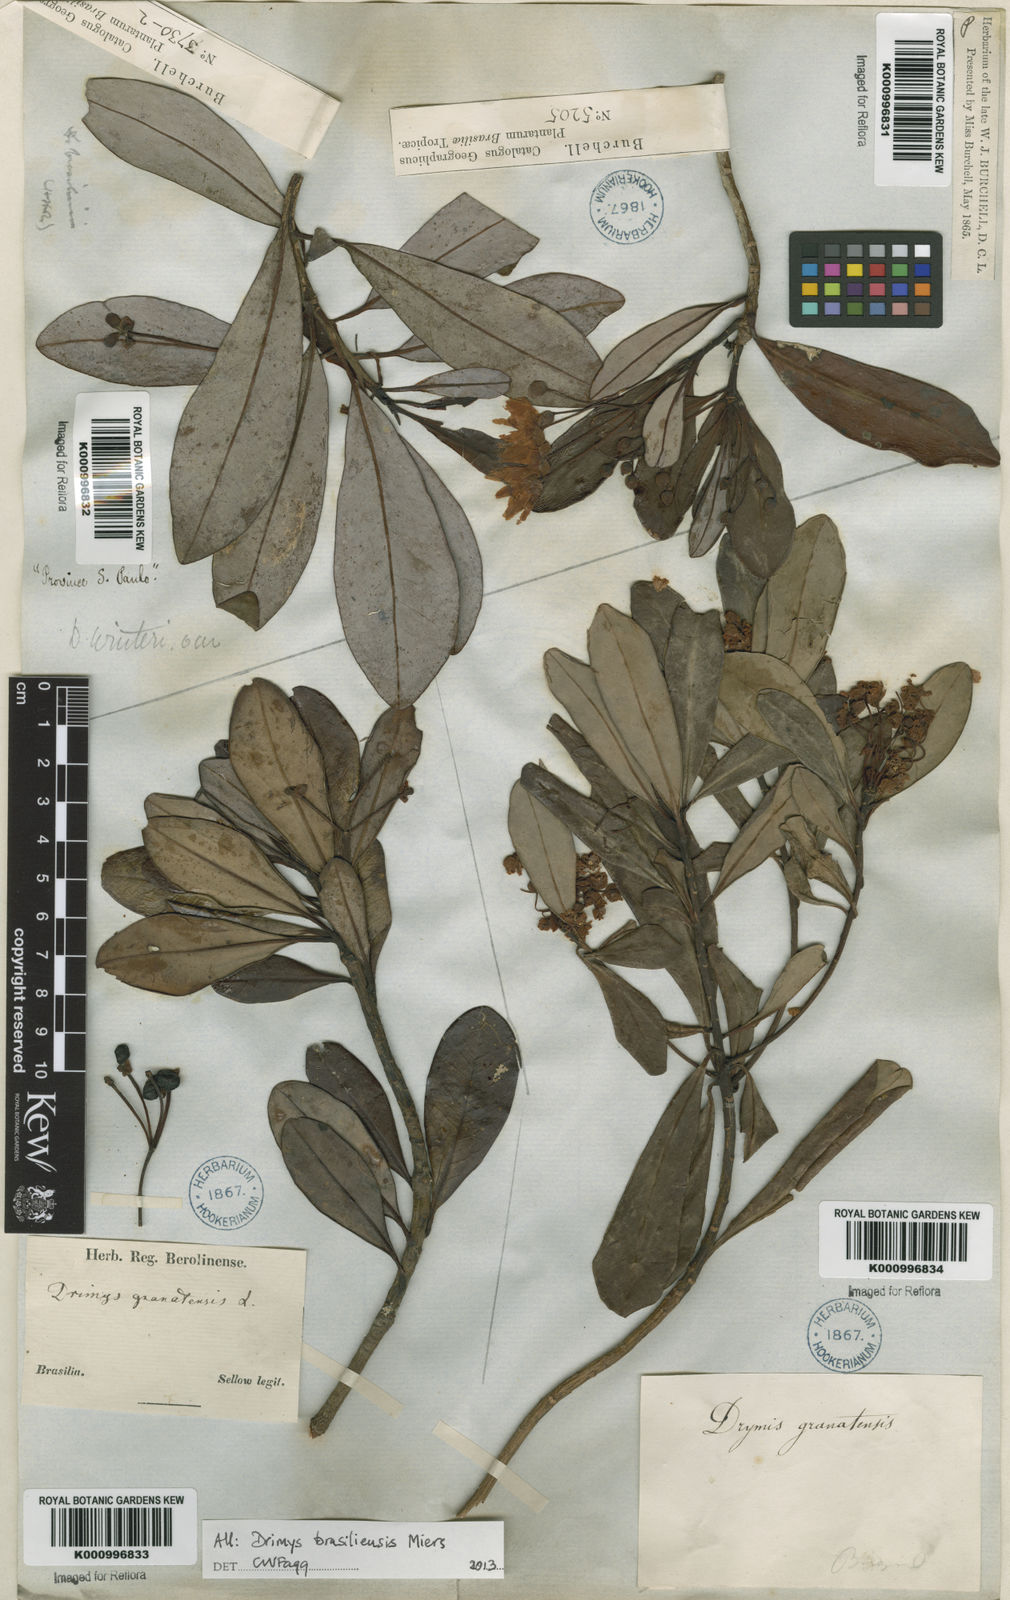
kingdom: Plantae
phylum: Tracheophyta
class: Magnoliopsida
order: Canellales
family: Winteraceae
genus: Drimys
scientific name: Drimys brasiliensis
